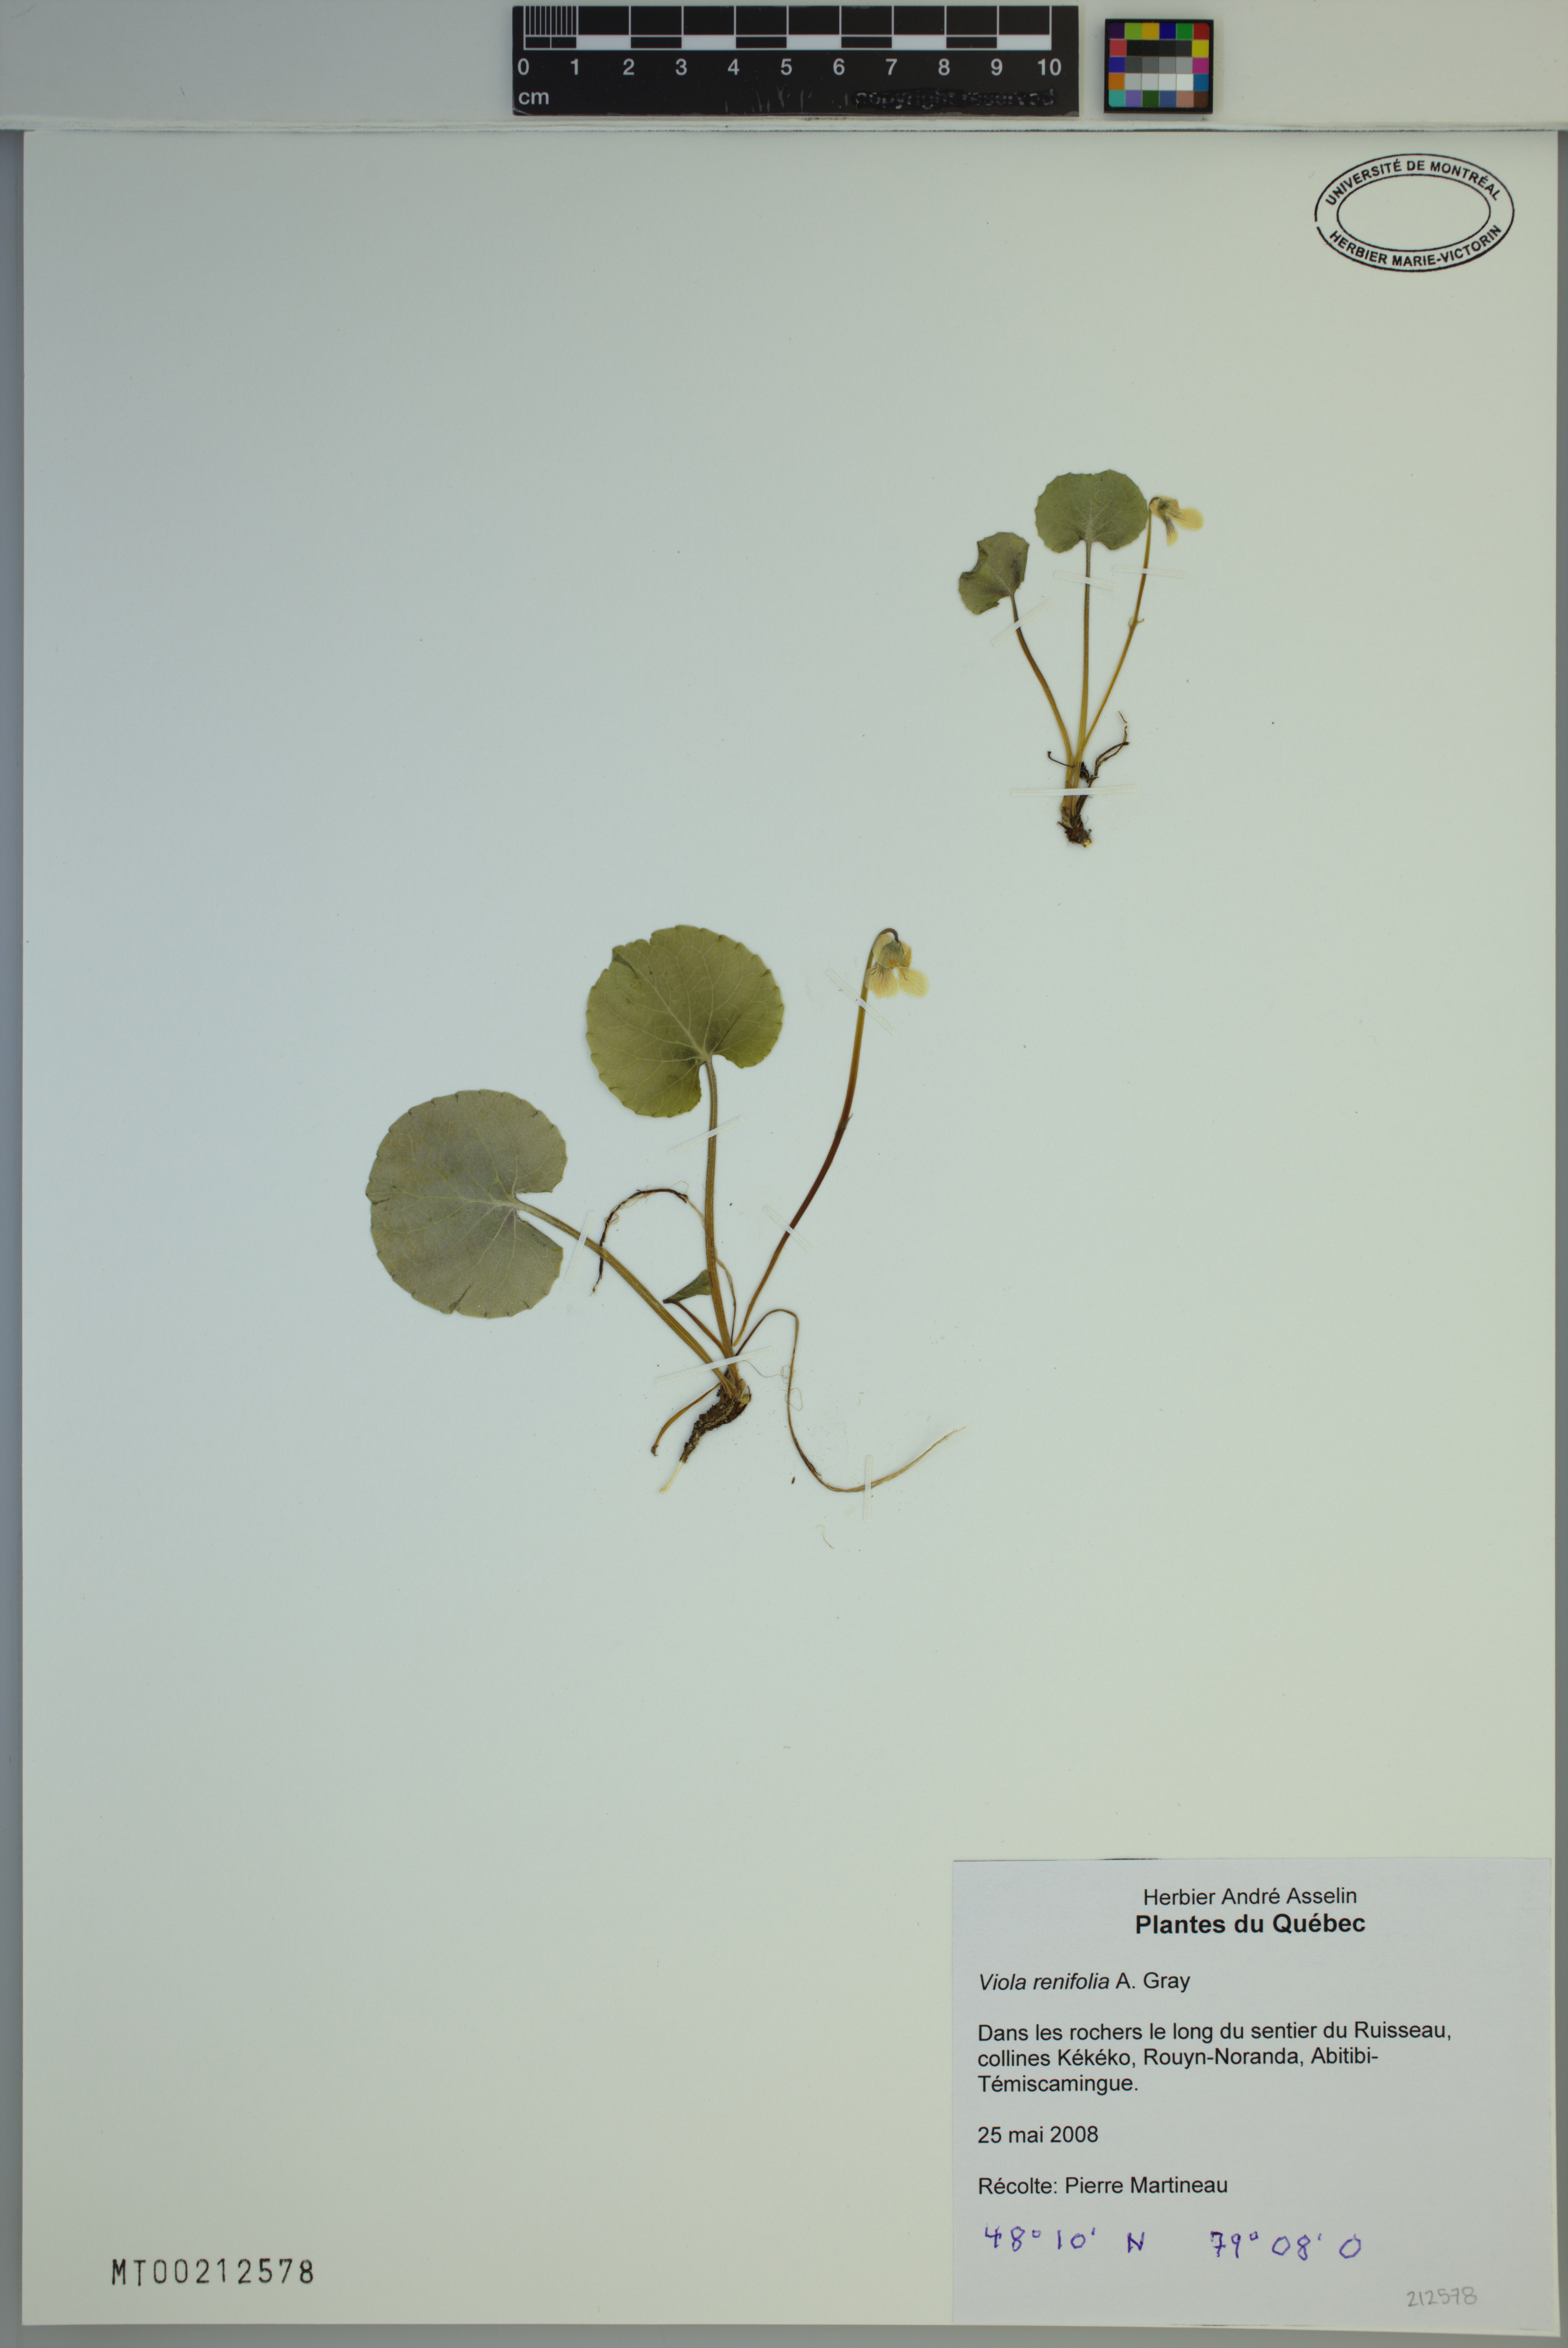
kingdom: Plantae
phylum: Tracheophyta
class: Magnoliopsida
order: Malpighiales
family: Violaceae
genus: Viola
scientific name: Viola renifolia
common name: Kidney-leaf violet
